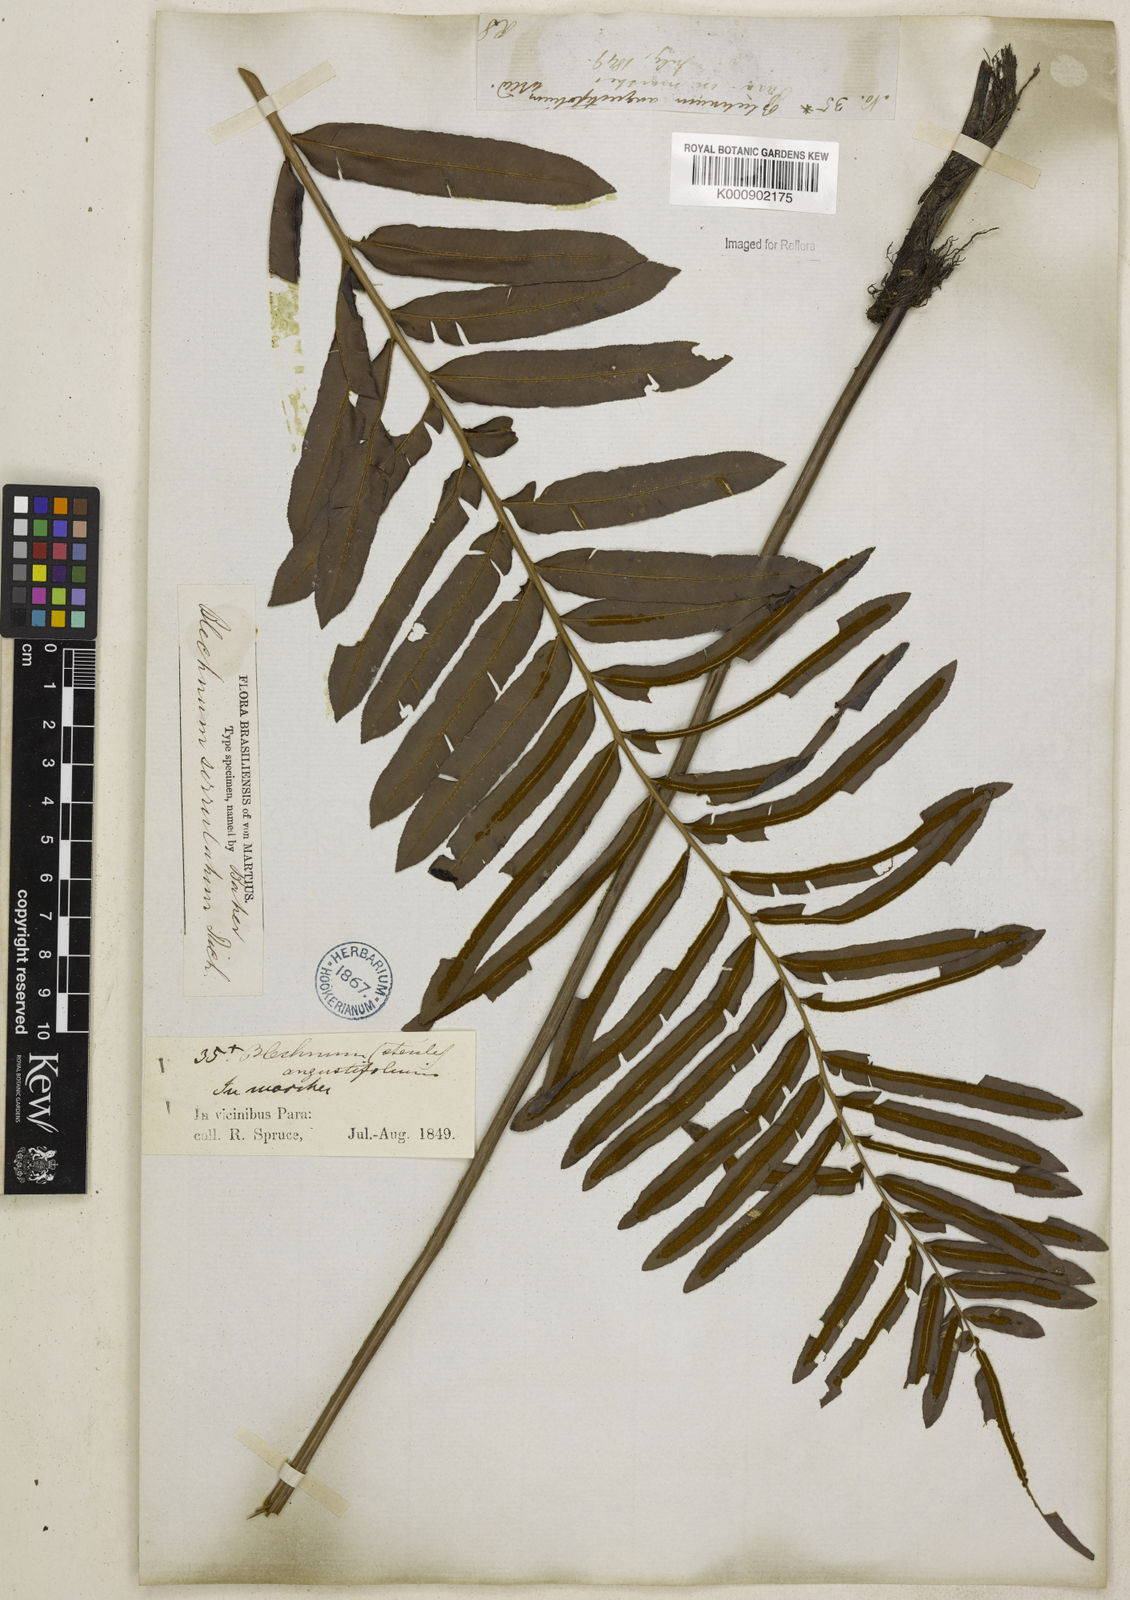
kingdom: Plantae
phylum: Tracheophyta
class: Polypodiopsida
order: Polypodiales
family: Blechnaceae
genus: Telmatoblechnum
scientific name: Telmatoblechnum serrulatum
